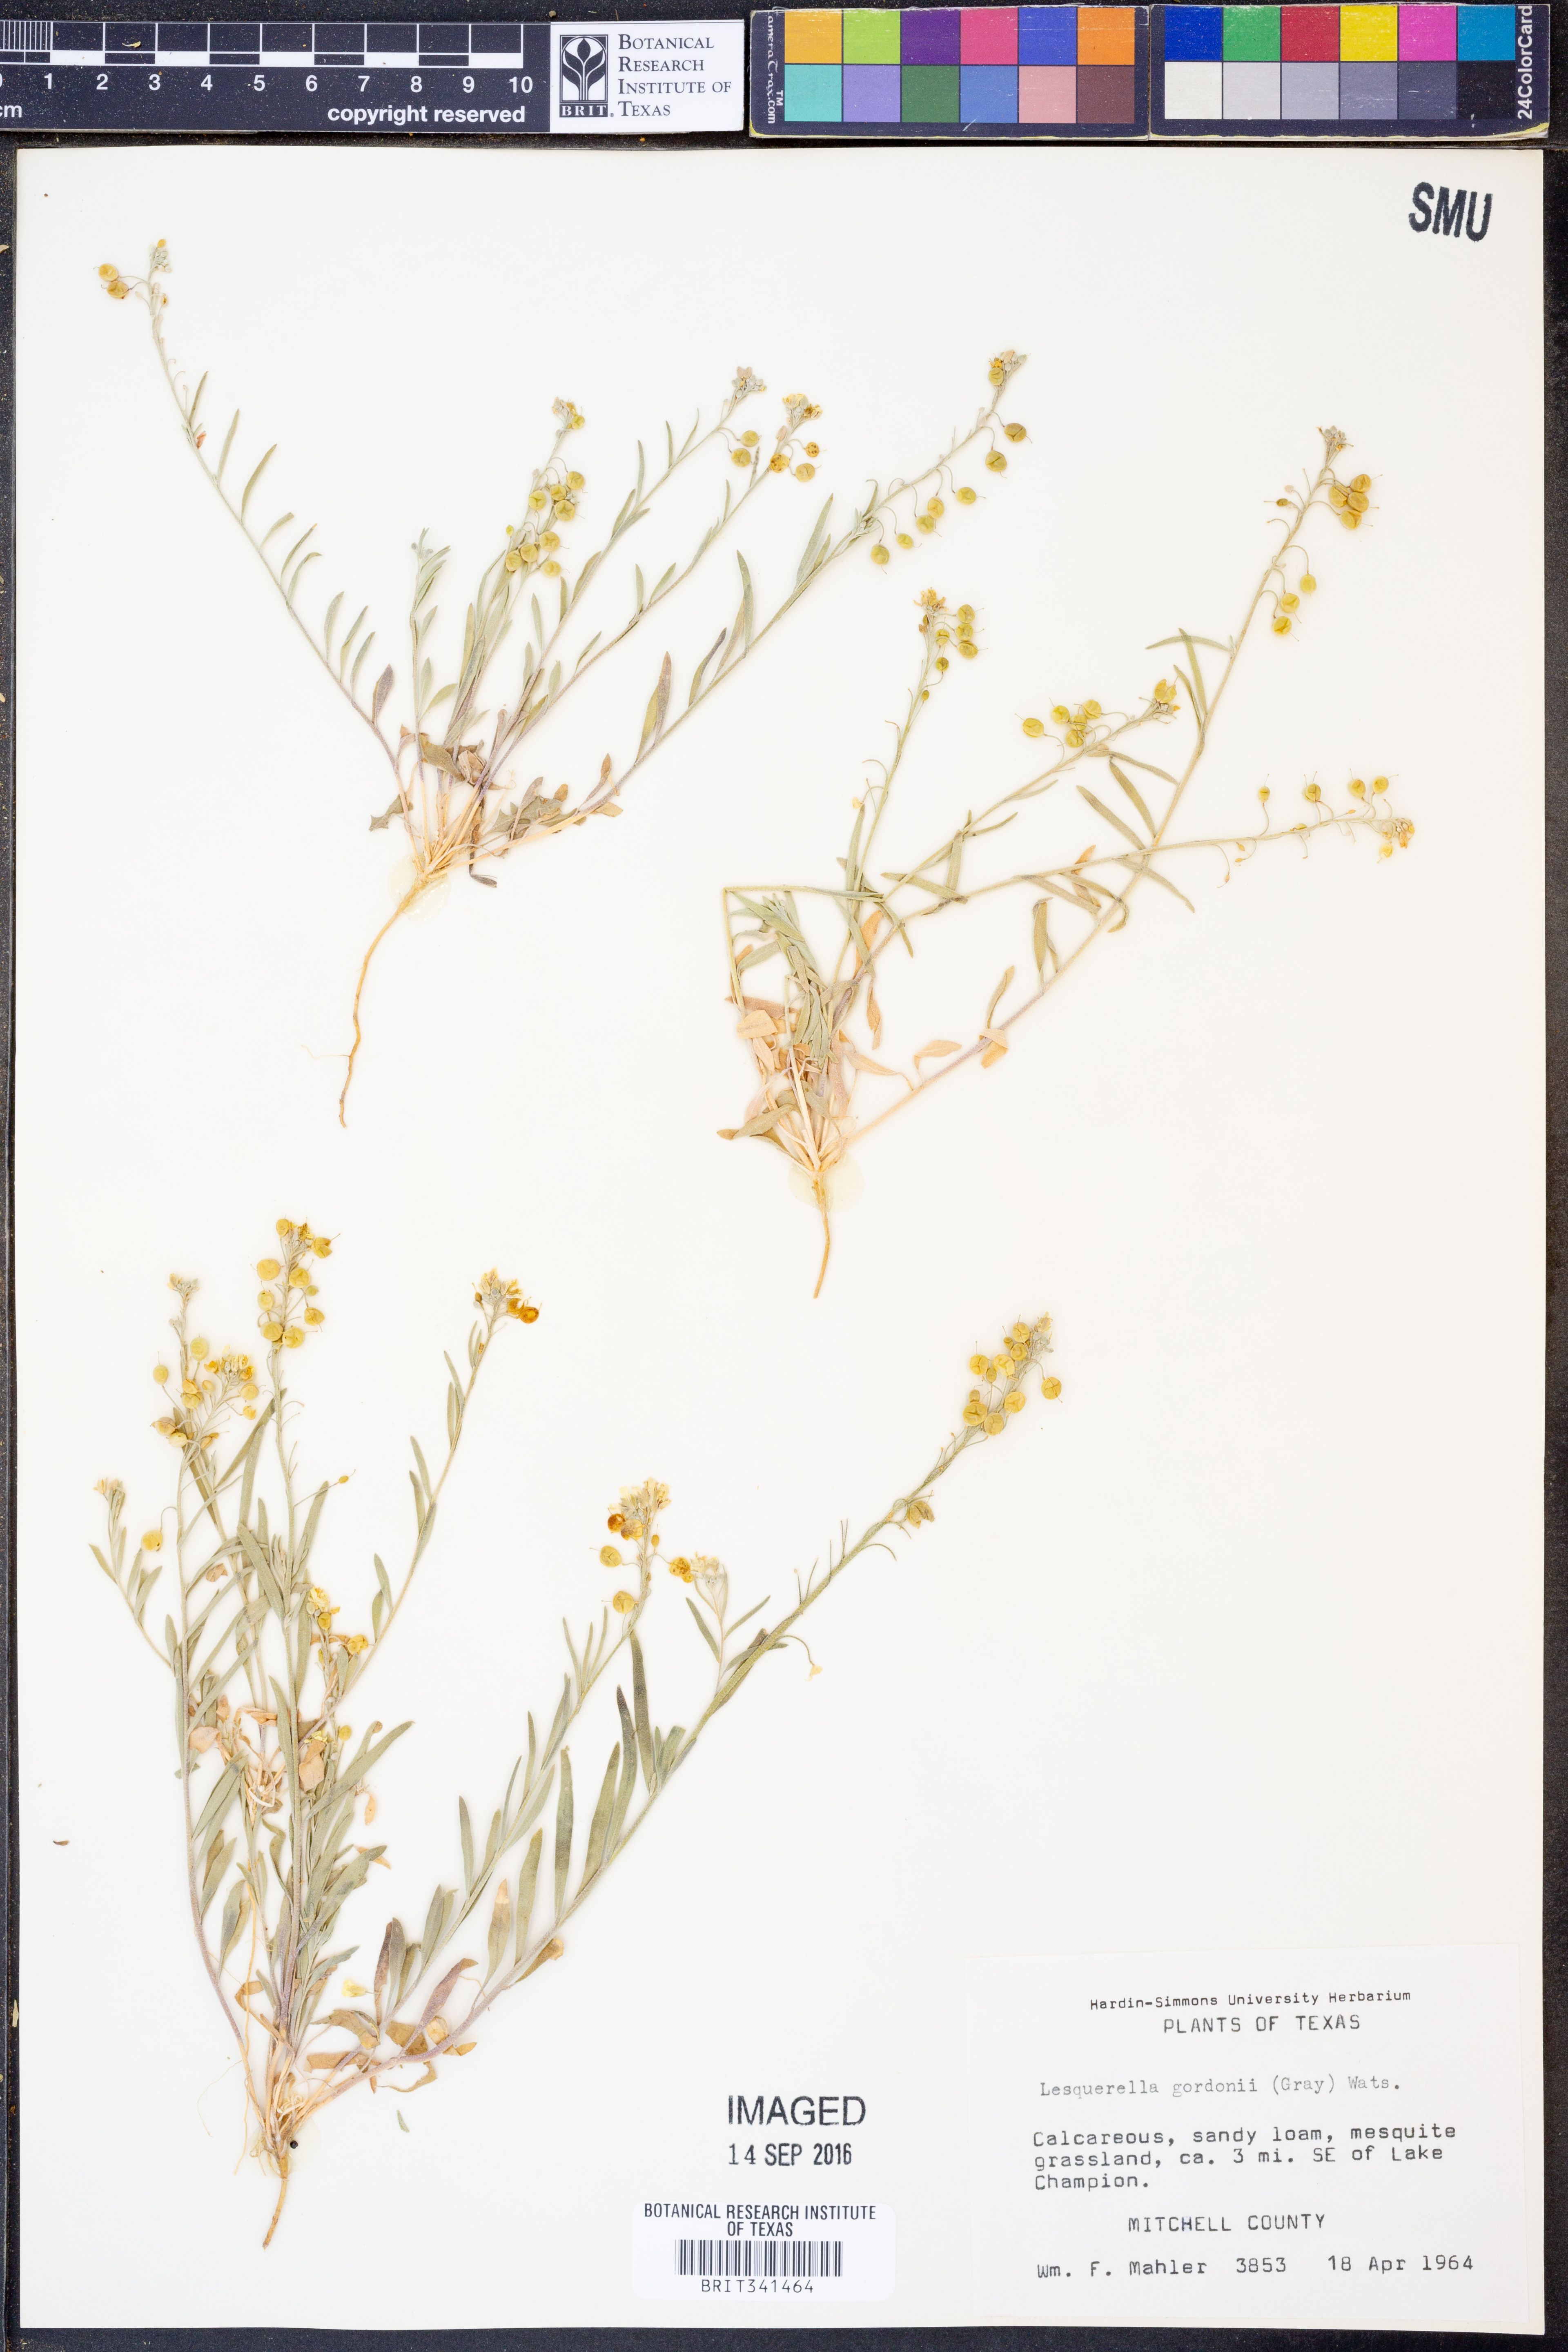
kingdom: Plantae
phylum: Tracheophyta
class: Magnoliopsida
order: Brassicales
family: Brassicaceae
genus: Physaria
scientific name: Physaria gordonii
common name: Gordon's bladderpod
